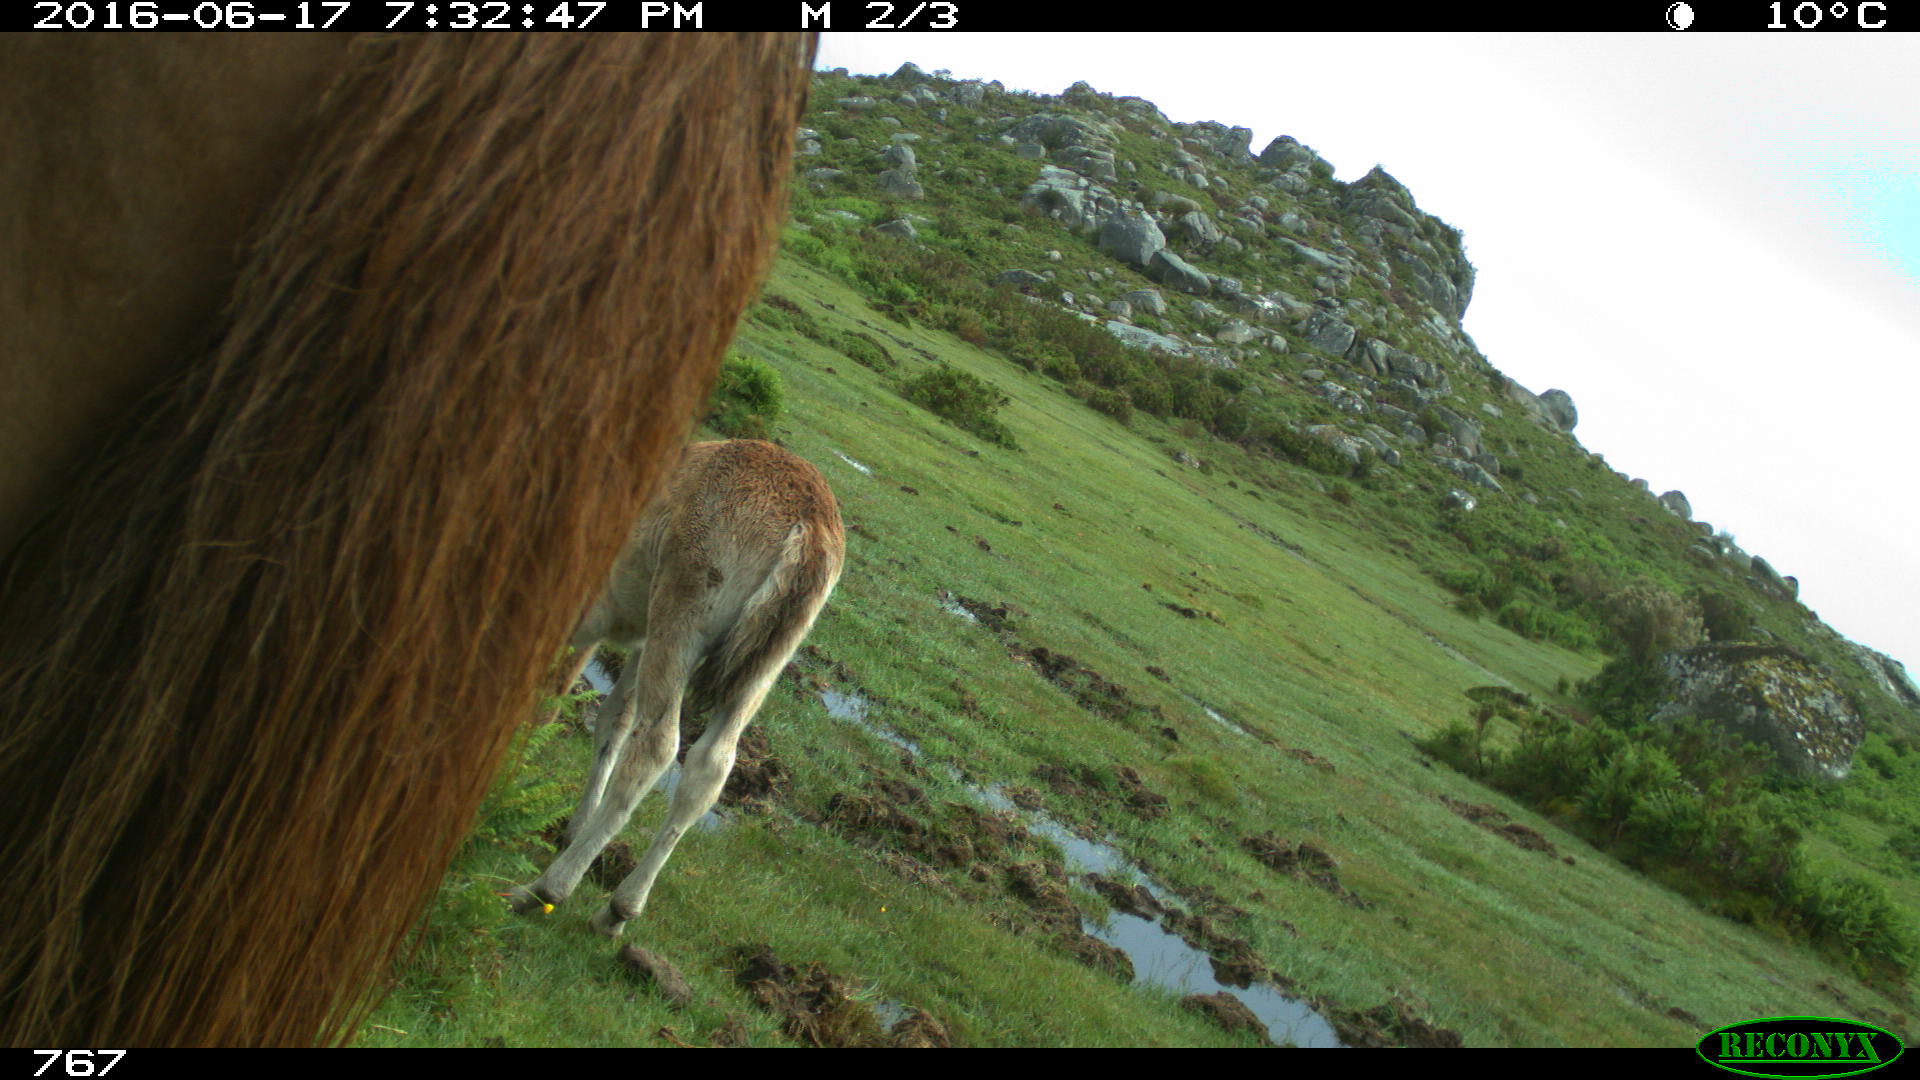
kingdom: Animalia
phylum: Chordata
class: Mammalia
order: Artiodactyla
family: Bovidae
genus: Bos
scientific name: Bos taurus
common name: Domesticated cattle
